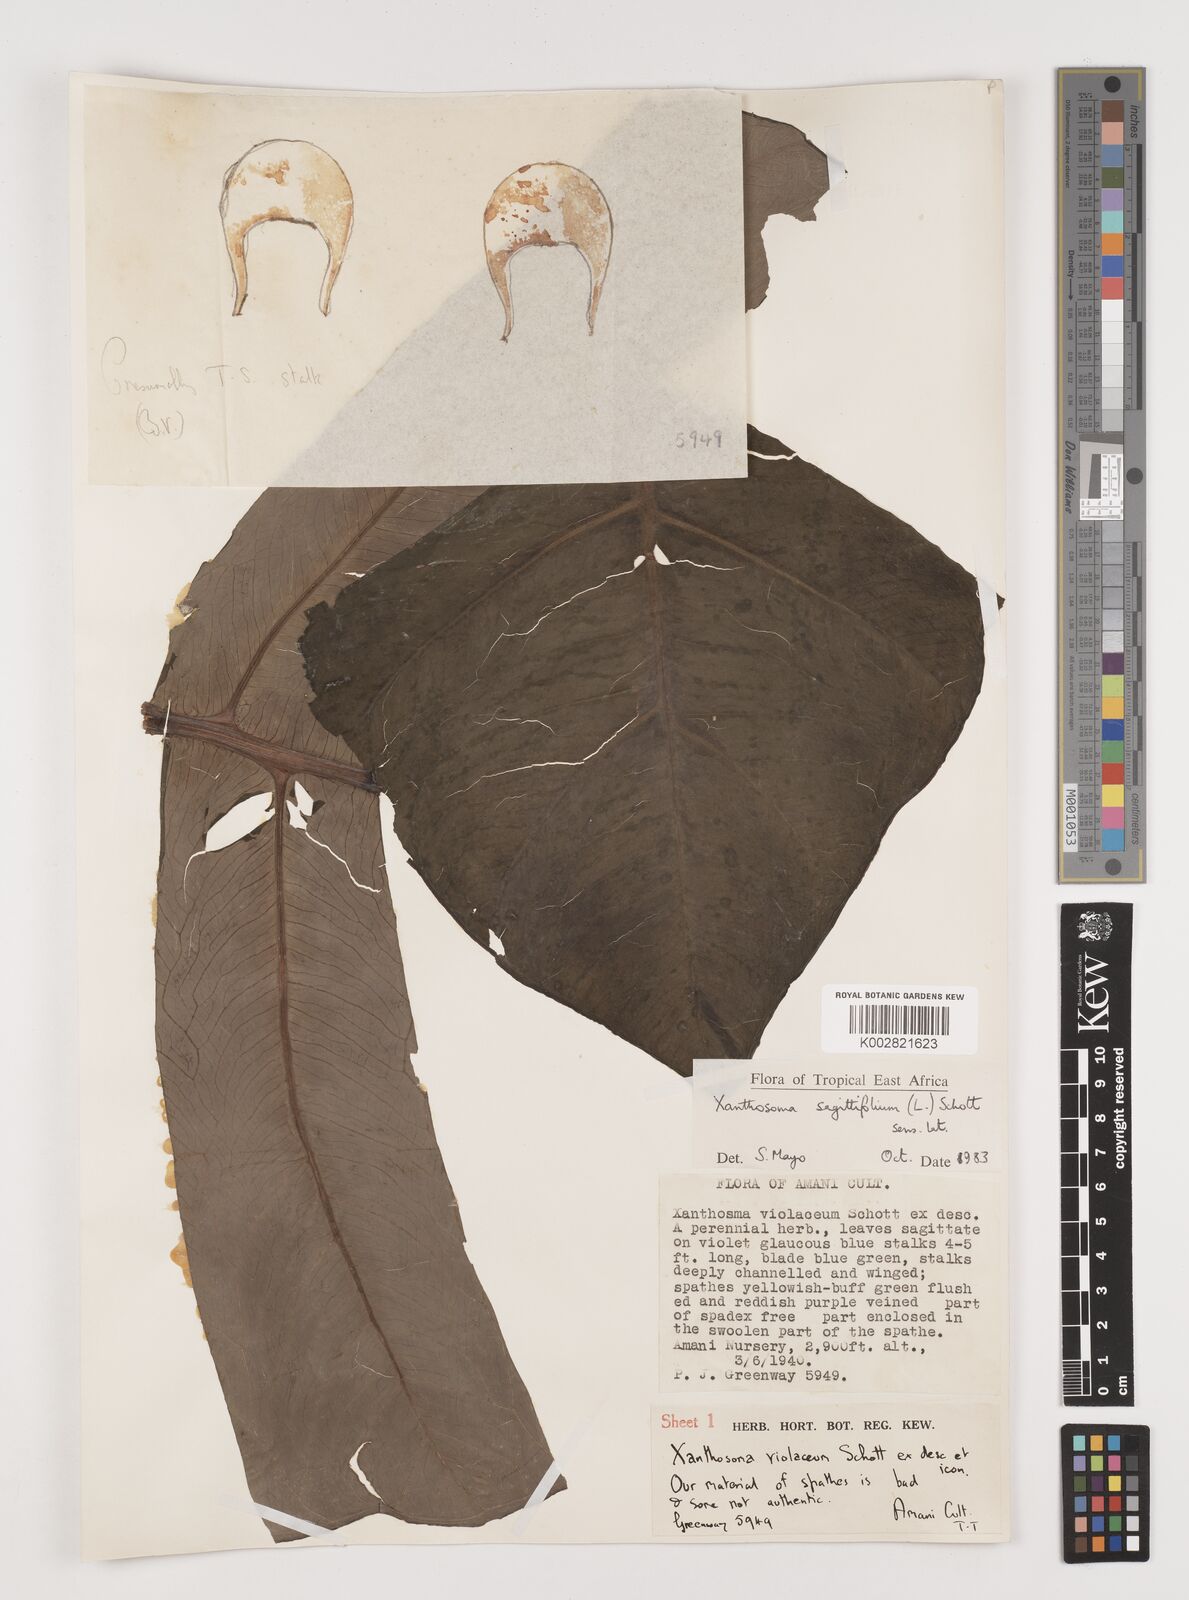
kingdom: Plantae
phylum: Tracheophyta
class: Liliopsida
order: Alismatales
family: Araceae
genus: Xanthosoma
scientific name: Xanthosoma sagittifolium
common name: Arrowleaf elephant's ear
